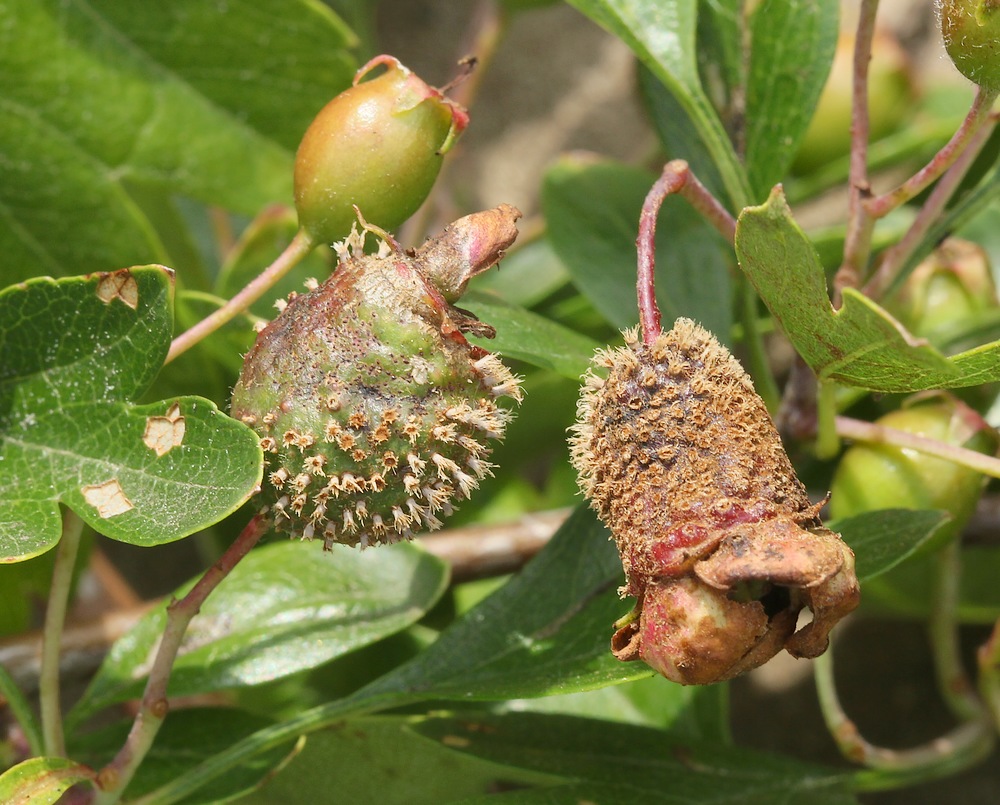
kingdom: Fungi
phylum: Basidiomycota
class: Pucciniomycetes
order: Pucciniales
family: Gymnosporangiaceae
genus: Gymnosporangium
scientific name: Gymnosporangium clavariiforme
